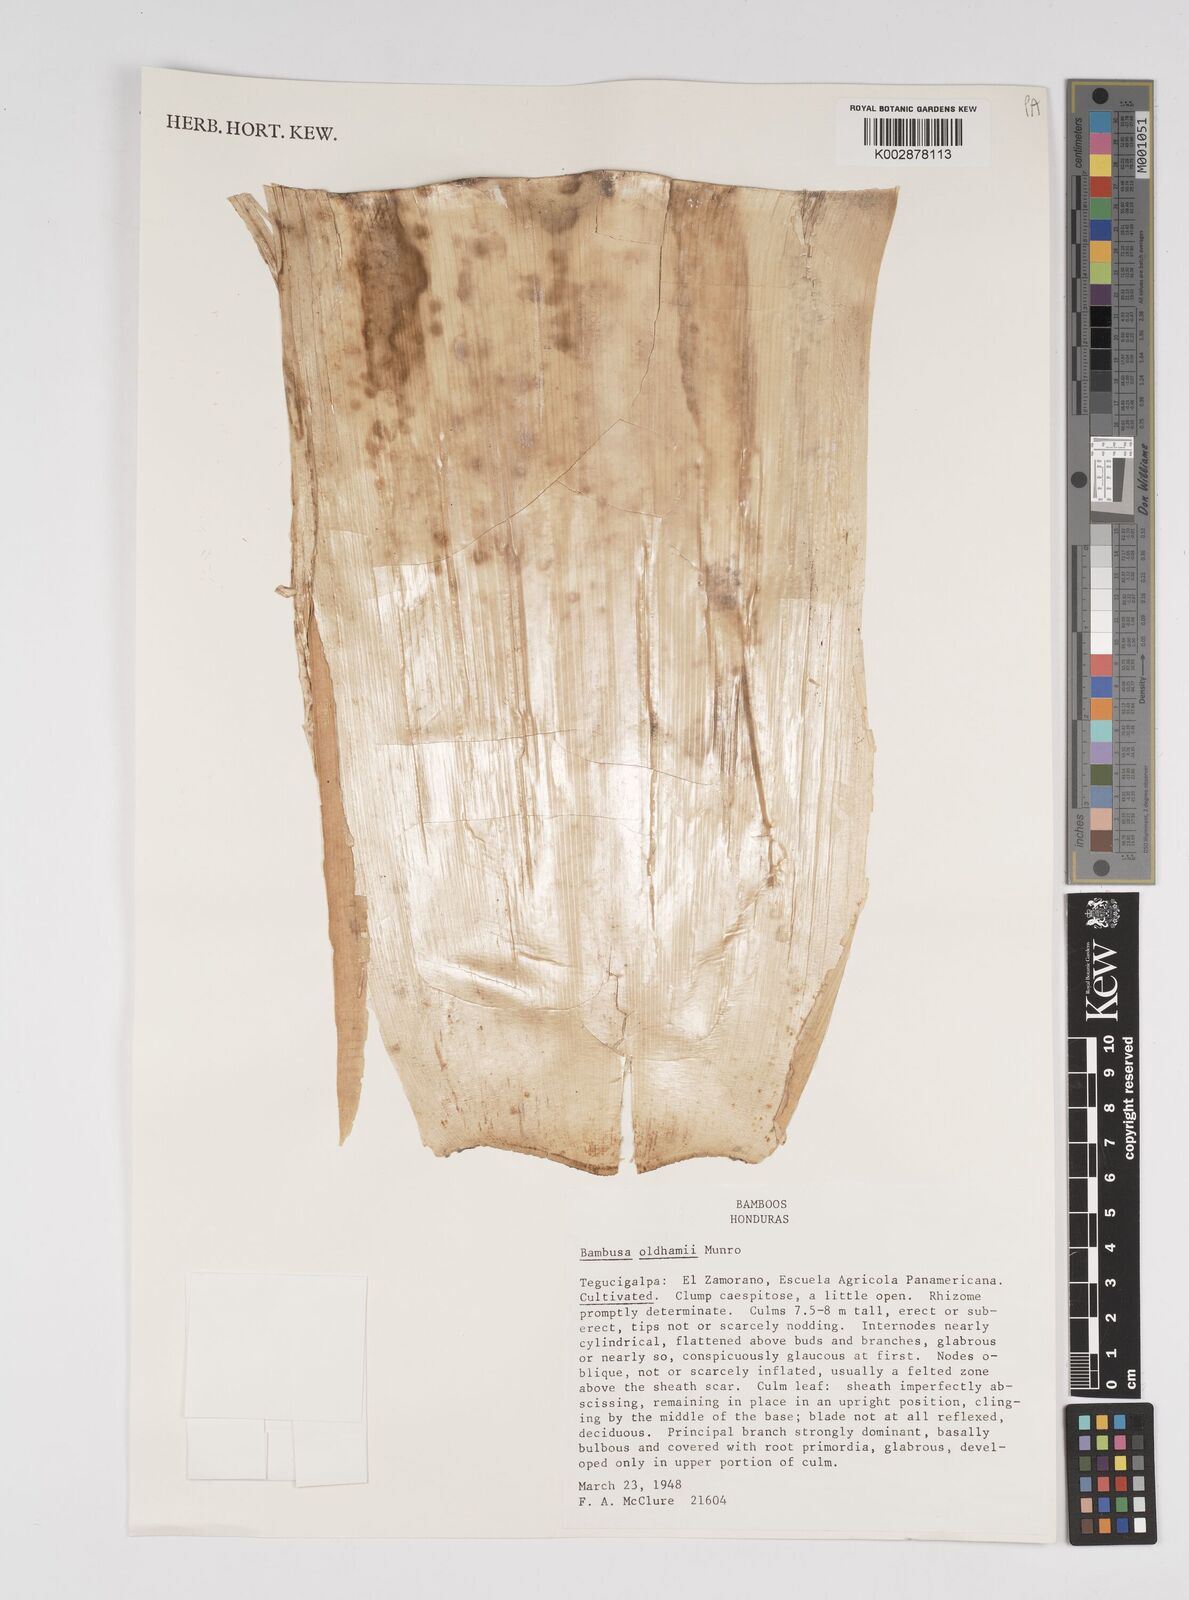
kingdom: Plantae
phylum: Tracheophyta
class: Liliopsida
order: Poales
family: Poaceae
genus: Bambusa
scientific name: Bambusa oldhamii
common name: Giant timber bamboo
